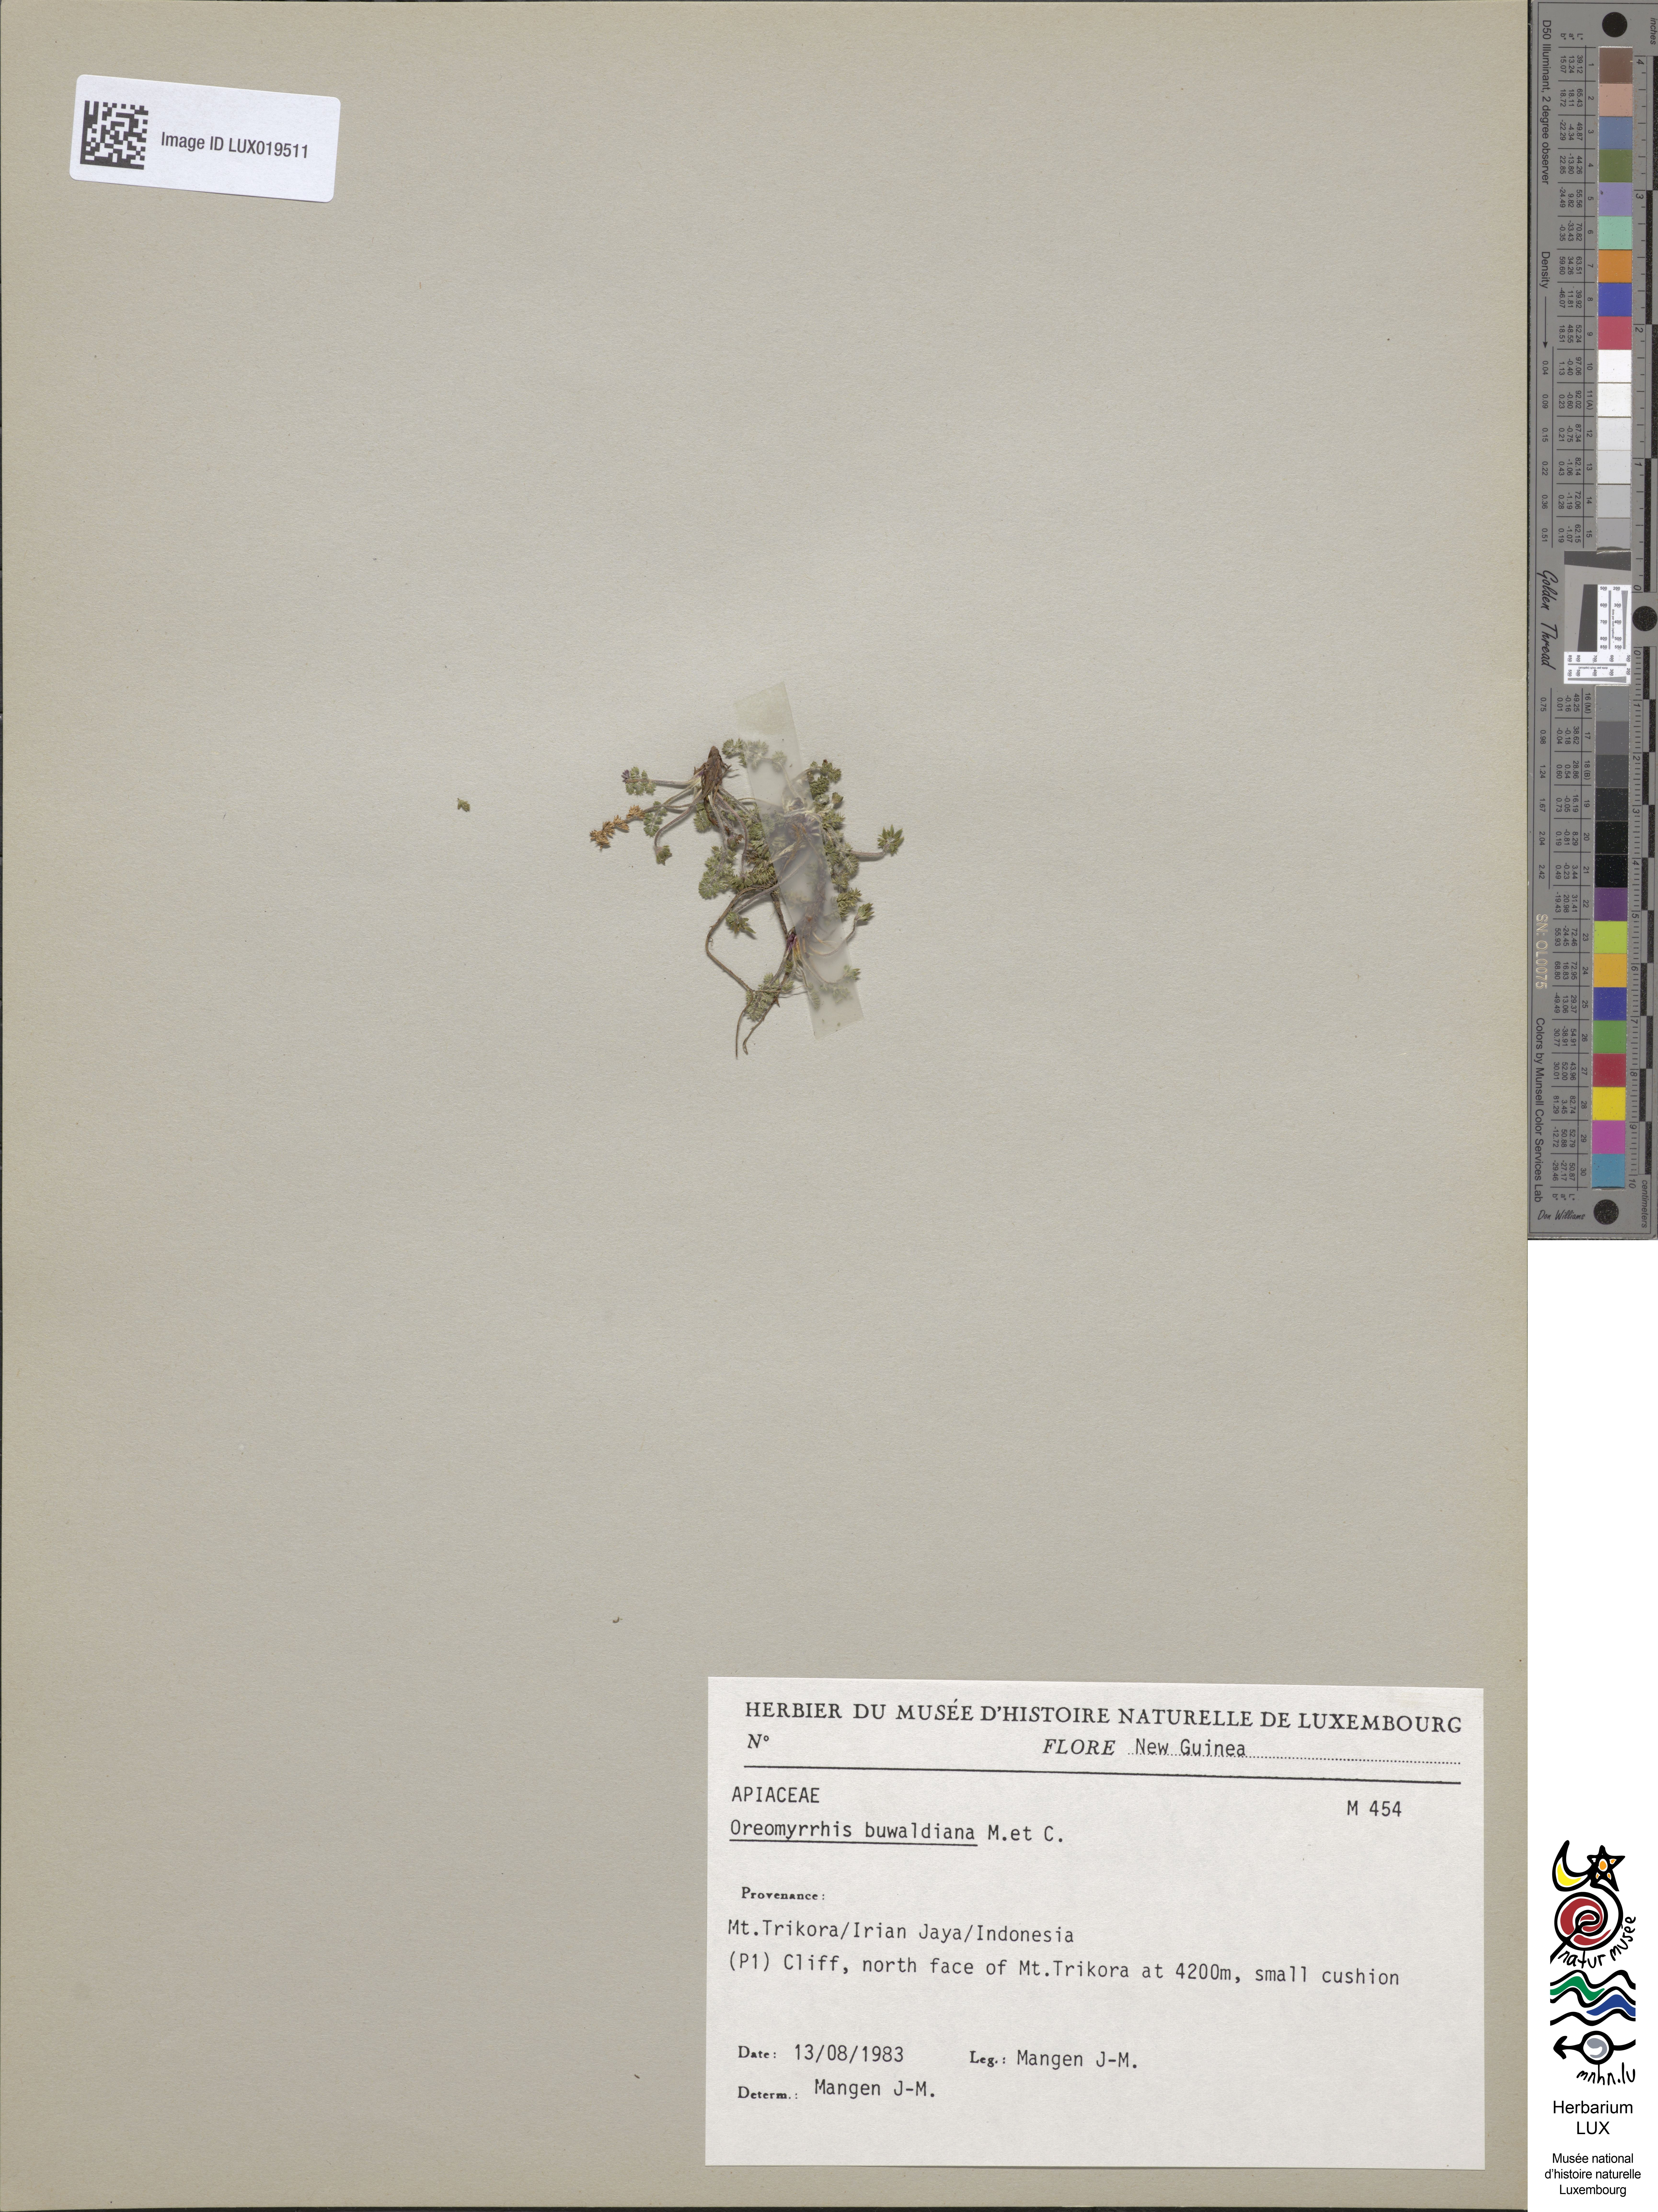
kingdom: Plantae
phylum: Tracheophyta
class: Magnoliopsida
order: Apiales
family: Apiaceae
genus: Chaerophyllum
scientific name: Chaerophyllum buwaldianum
